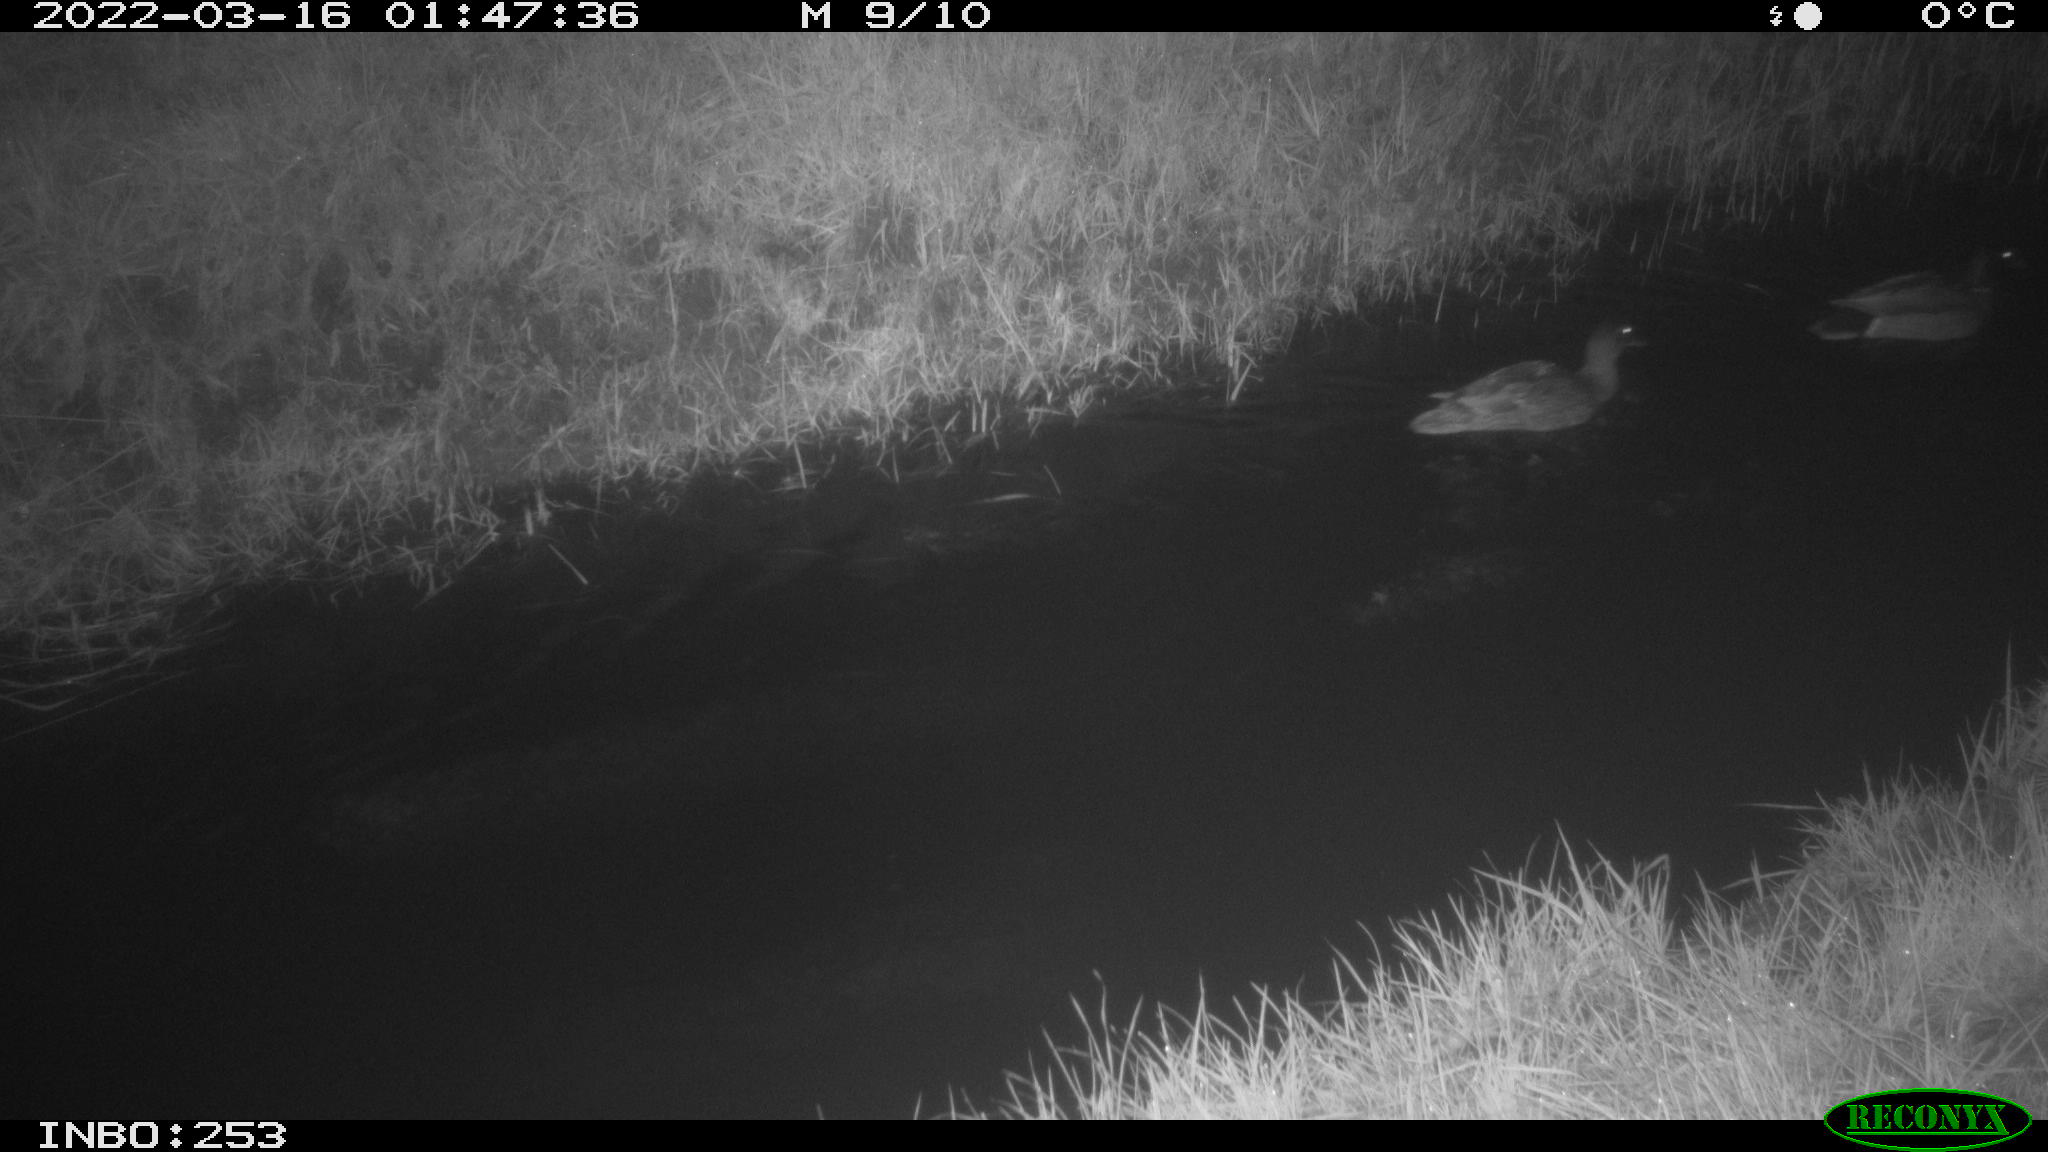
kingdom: Animalia
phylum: Chordata
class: Aves
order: Anseriformes
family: Anatidae
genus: Anas
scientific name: Anas platyrhynchos
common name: Mallard
